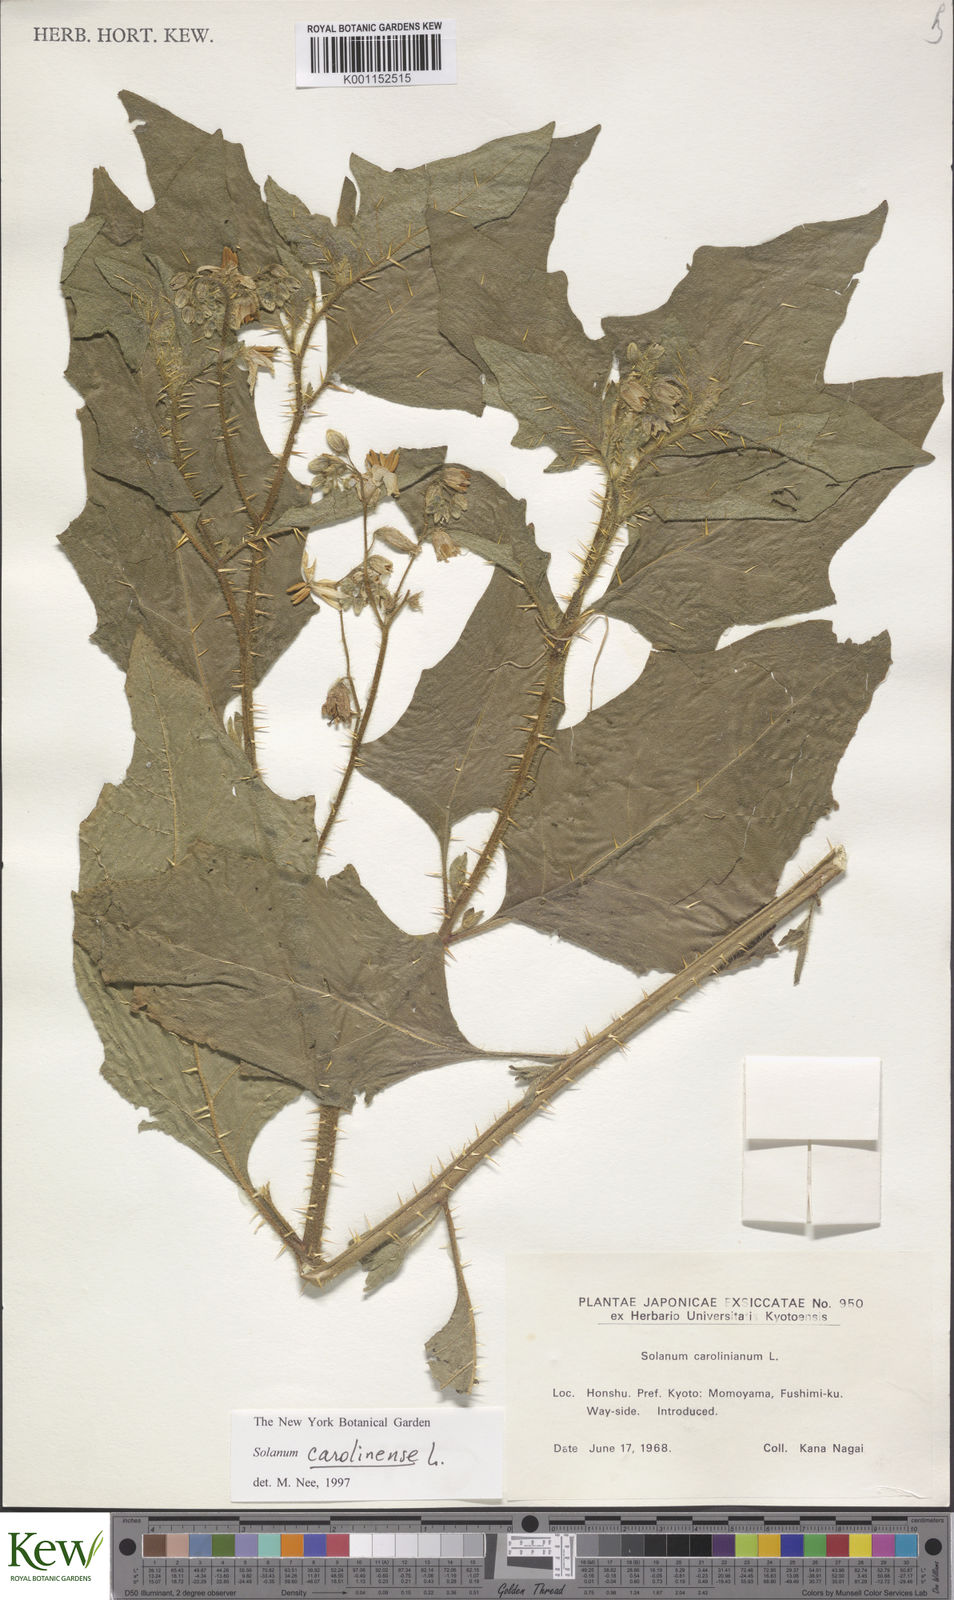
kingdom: Plantae
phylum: Tracheophyta
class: Magnoliopsida
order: Solanales
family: Solanaceae
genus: Solanum
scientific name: Solanum
